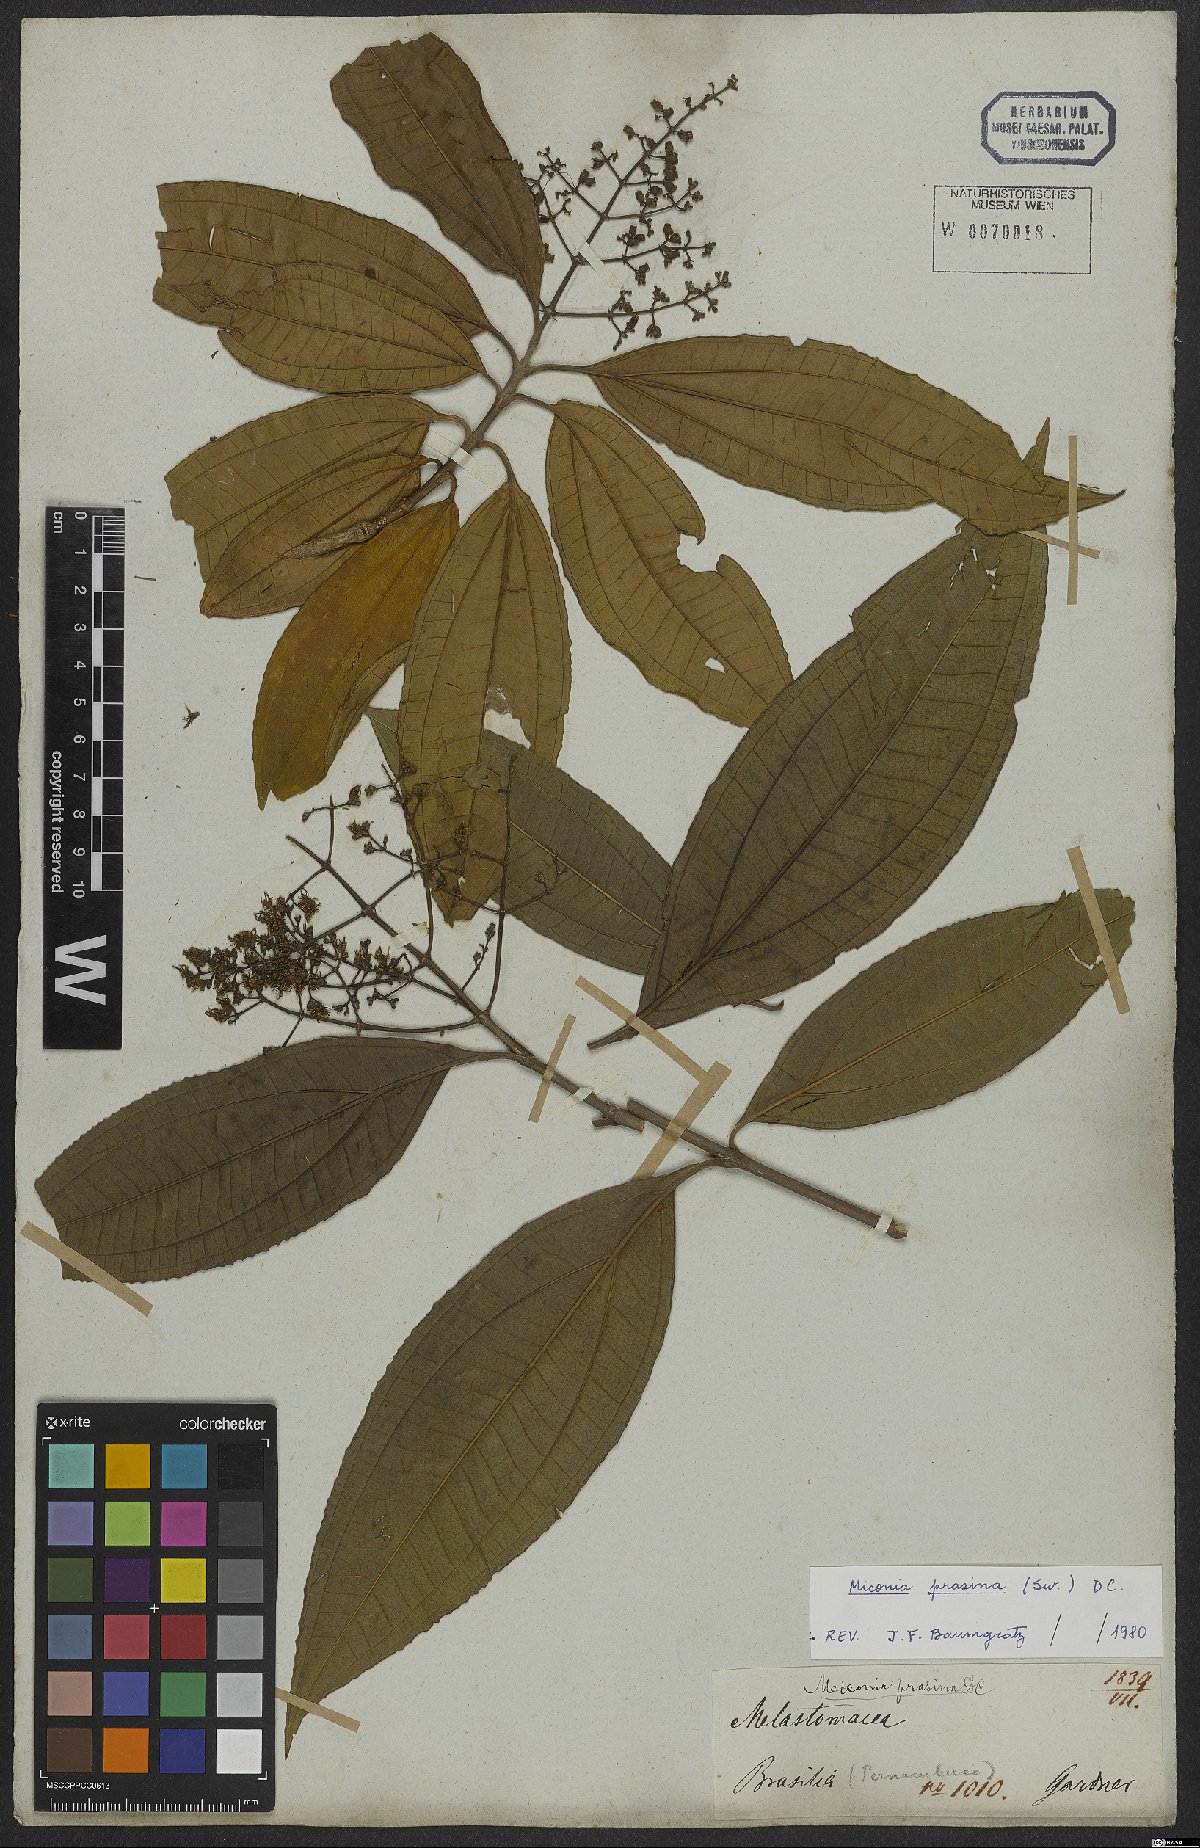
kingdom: Plantae
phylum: Tracheophyta
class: Magnoliopsida
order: Myrtales
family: Melastomataceae
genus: Miconia
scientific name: Miconia prasina
